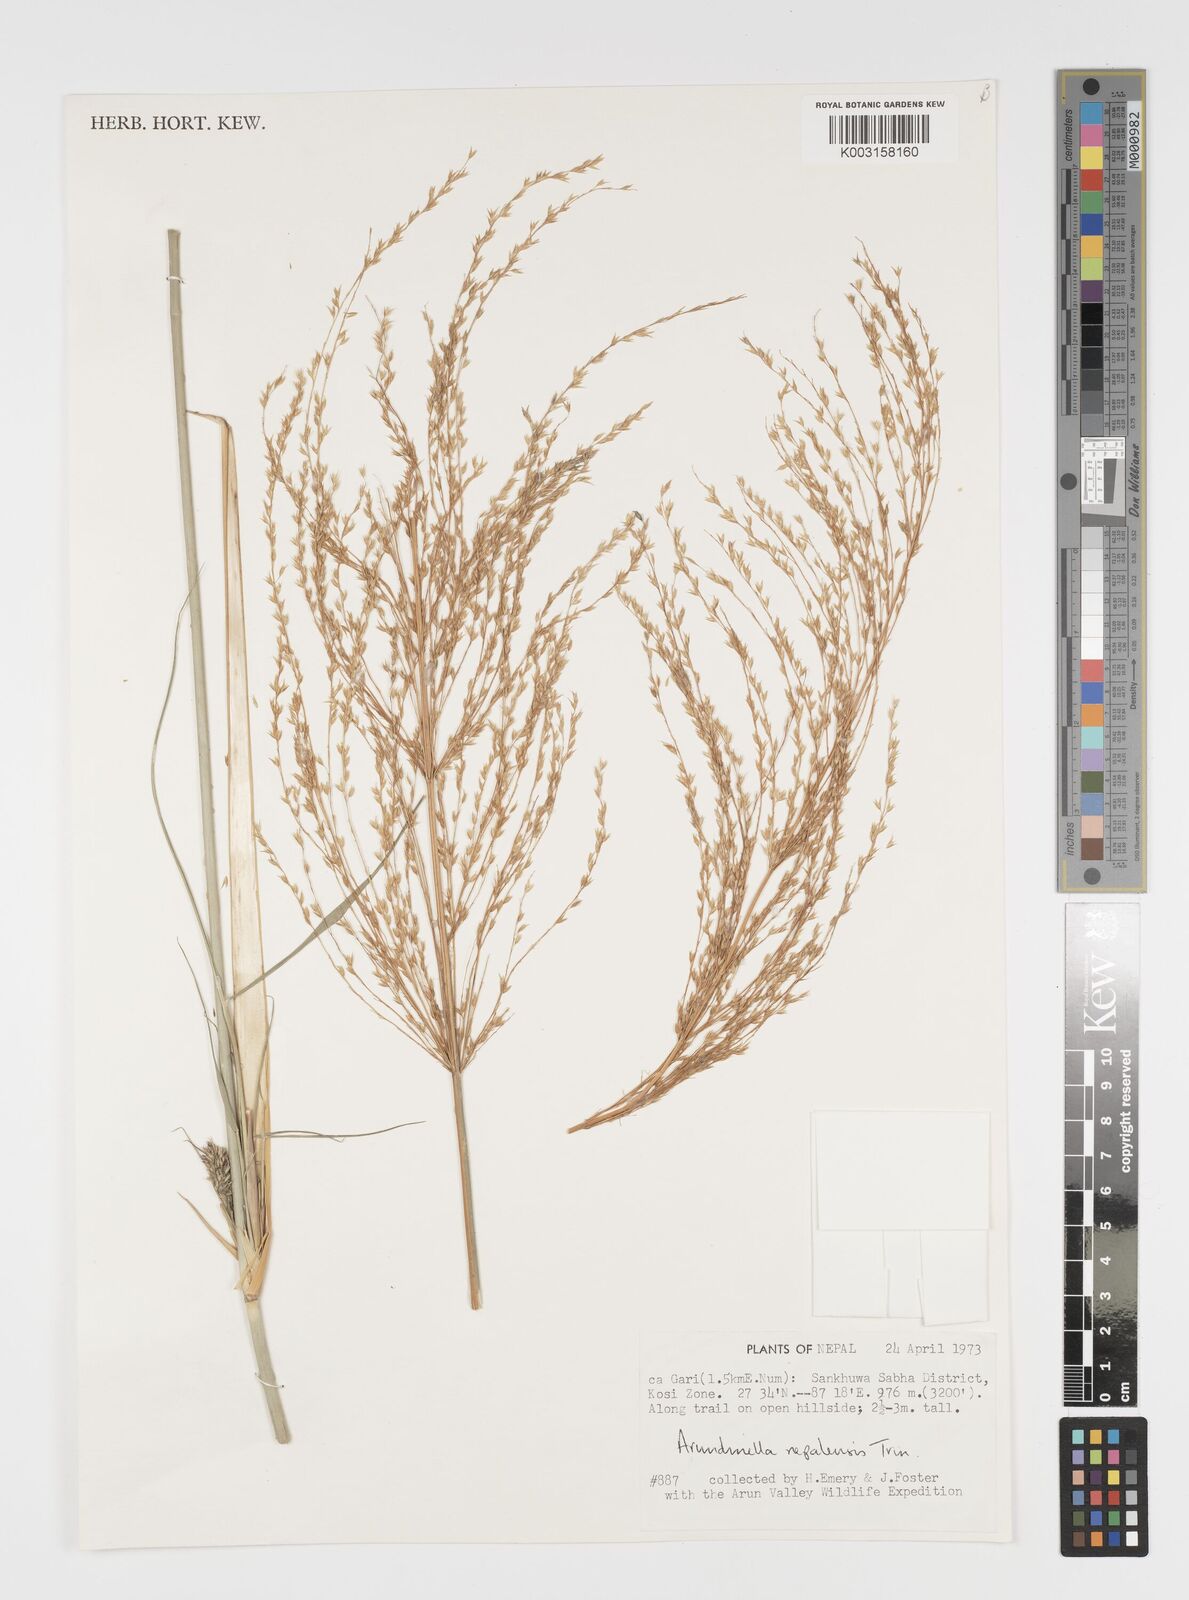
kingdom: Plantae
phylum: Tracheophyta
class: Liliopsida
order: Poales
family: Poaceae
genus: Arundinella
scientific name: Arundinella nepalensis
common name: Reed grass
